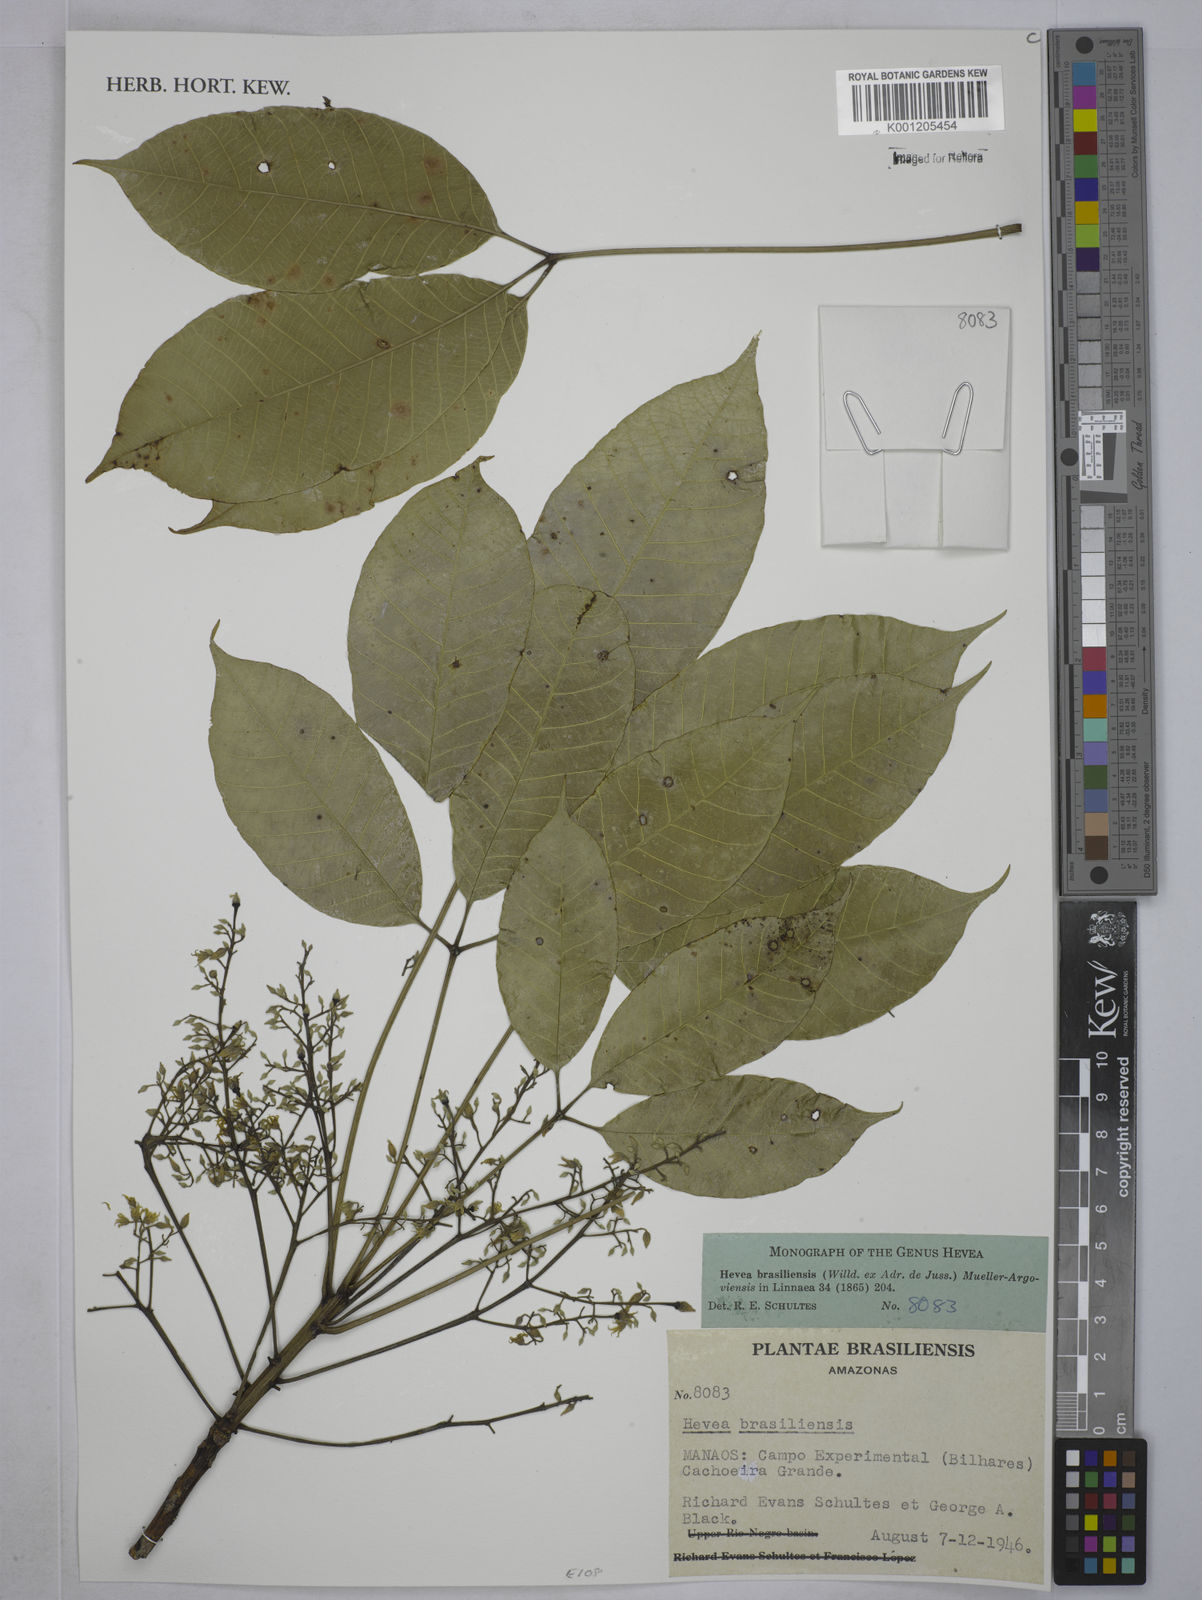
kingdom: Plantae
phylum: Tracheophyta
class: Magnoliopsida
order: Malpighiales
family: Euphorbiaceae
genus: Hevea
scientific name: Hevea
